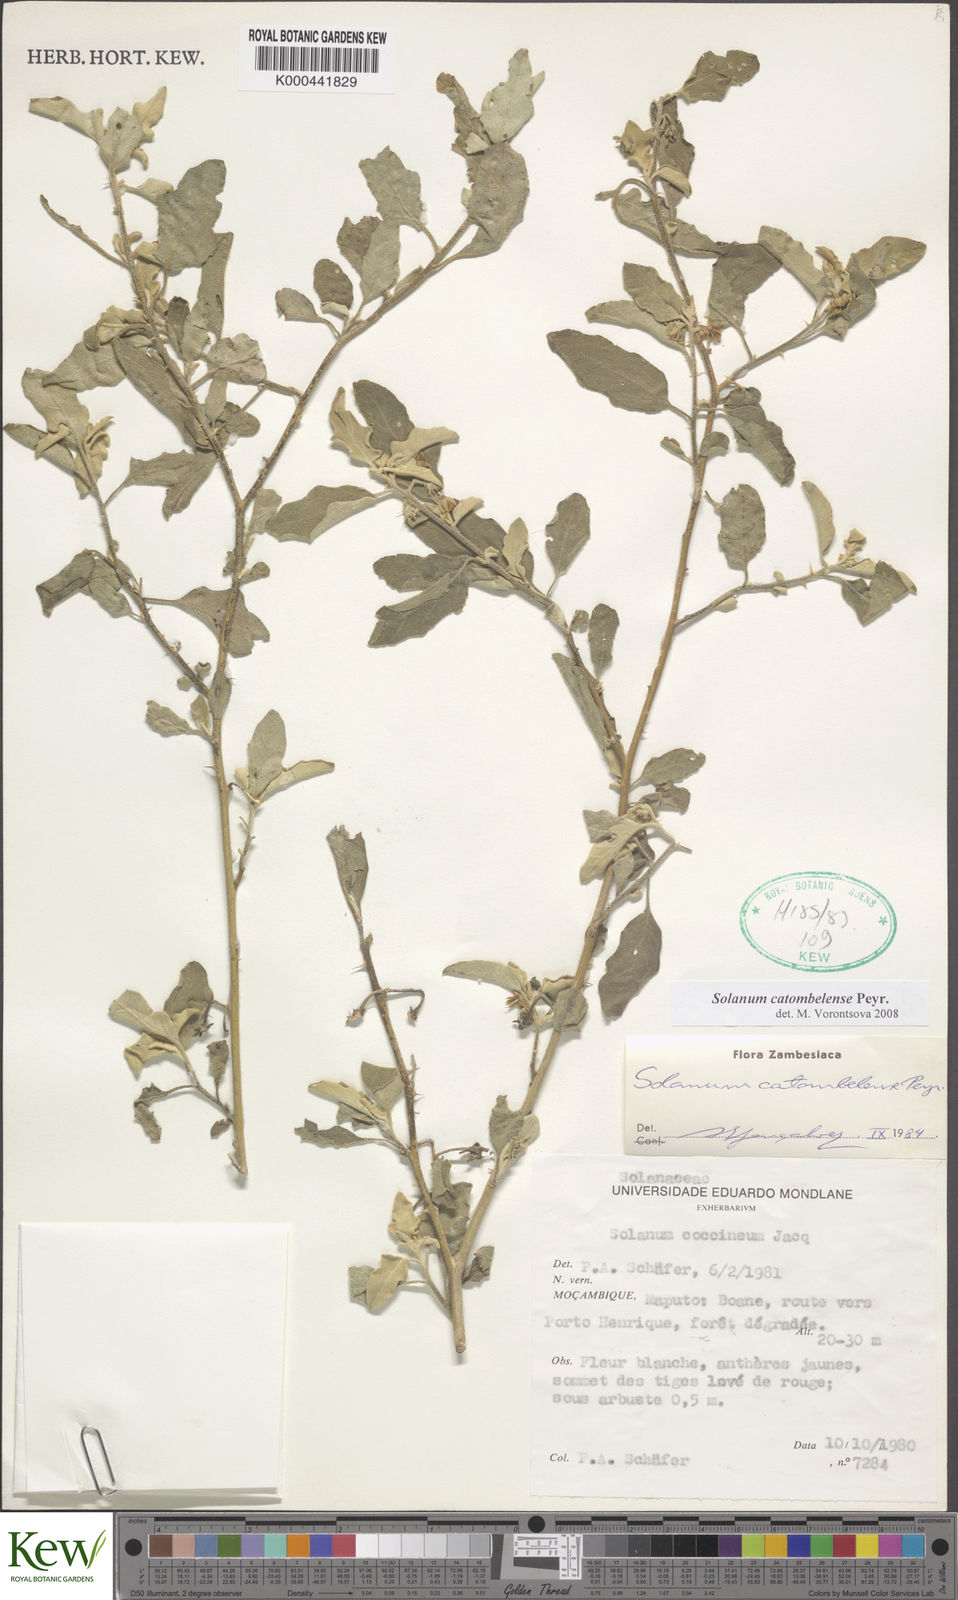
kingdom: Plantae
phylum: Tracheophyta
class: Magnoliopsida
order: Solanales
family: Solanaceae
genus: Solanum
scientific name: Solanum catombelense
